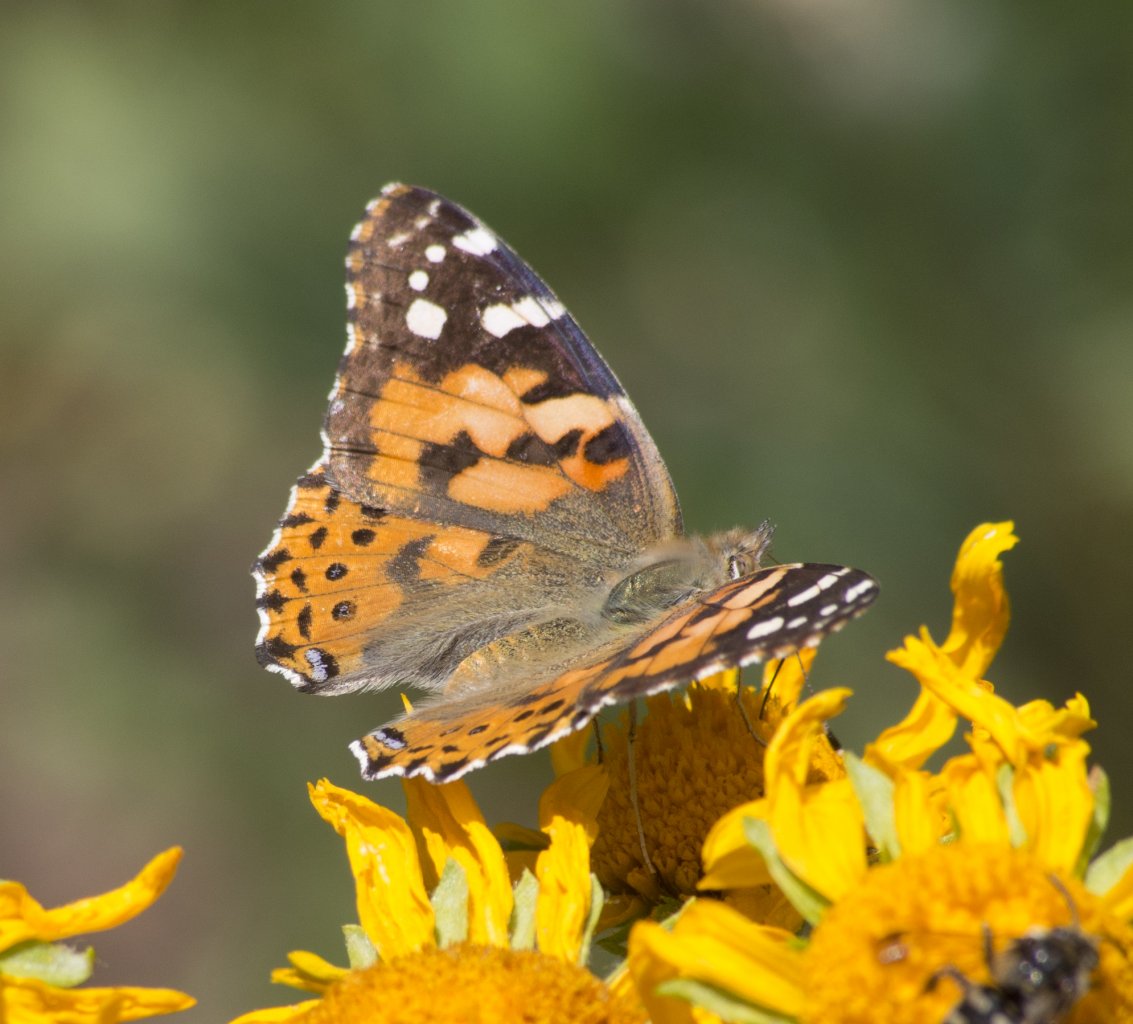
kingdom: Animalia
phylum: Arthropoda
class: Insecta
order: Lepidoptera
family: Nymphalidae
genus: Vanessa
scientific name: Vanessa cardui
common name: Painted Lady
